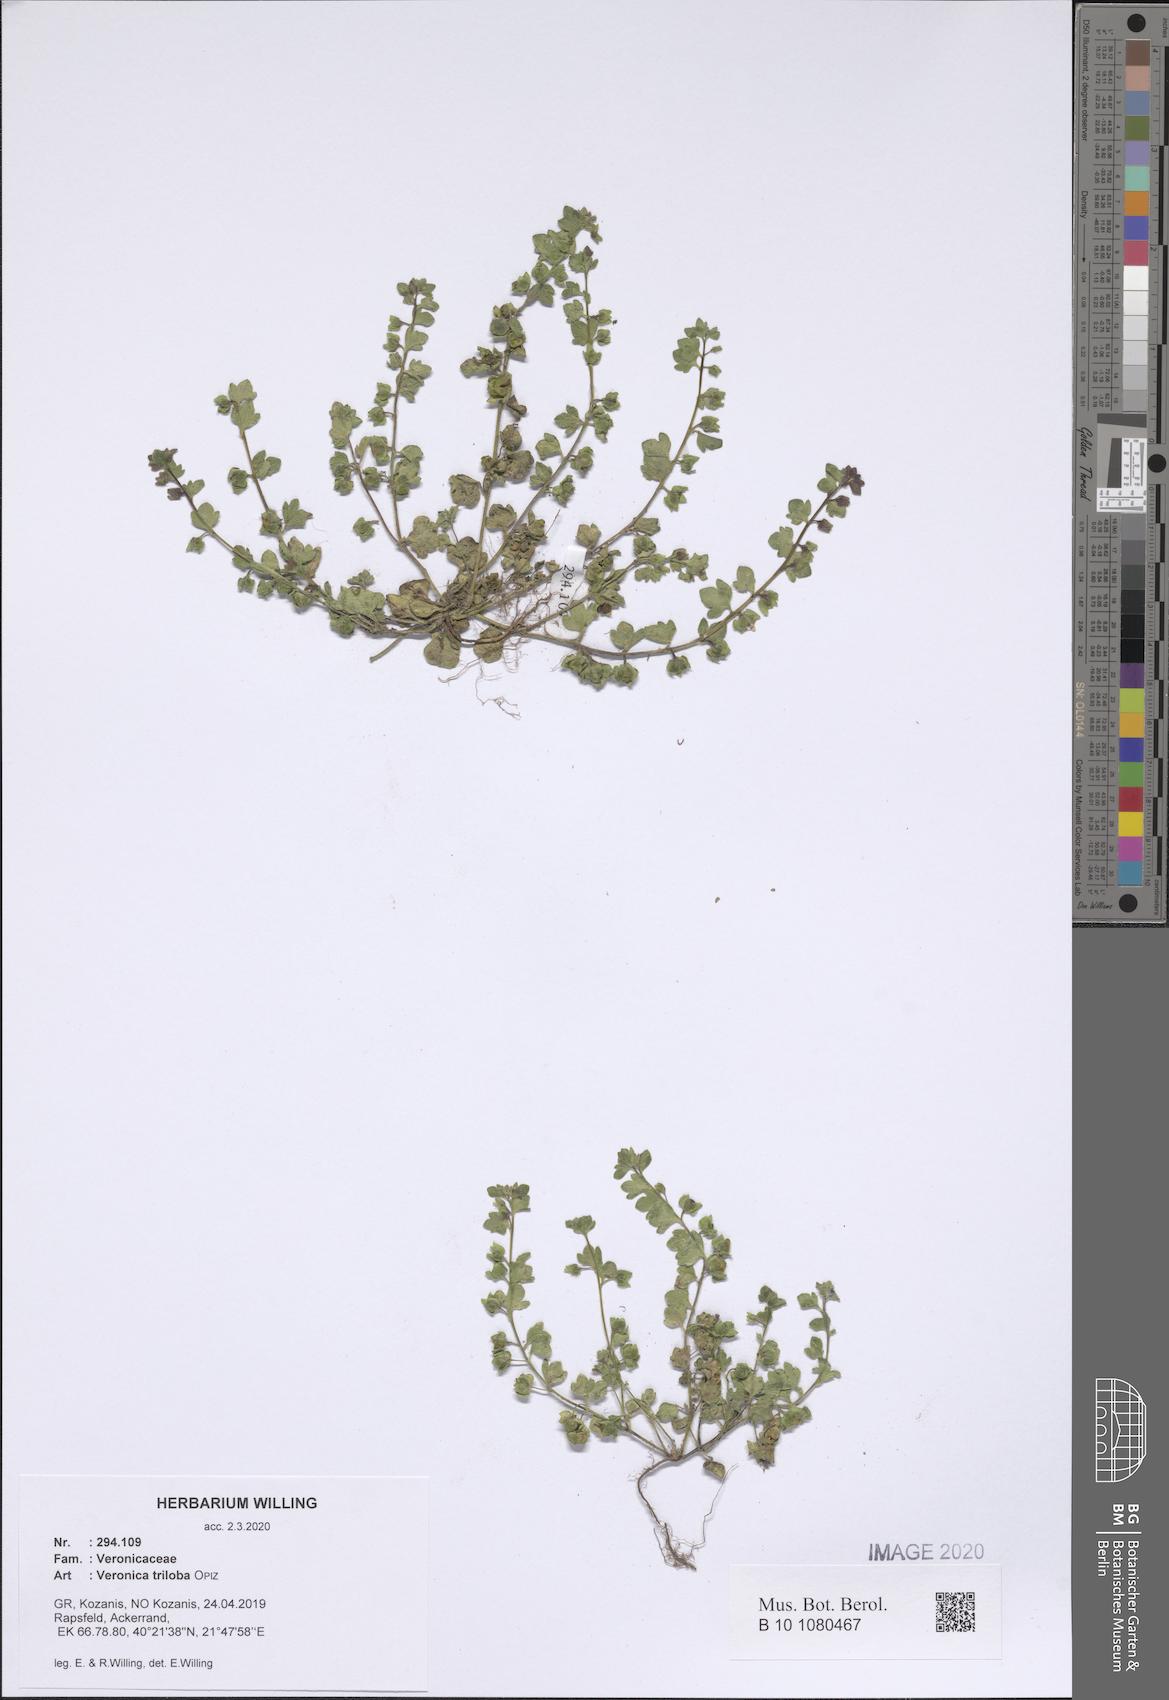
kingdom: Plantae
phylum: Tracheophyta
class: Magnoliopsida
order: Lamiales
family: Plantaginaceae
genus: Veronica
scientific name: Veronica triloba
